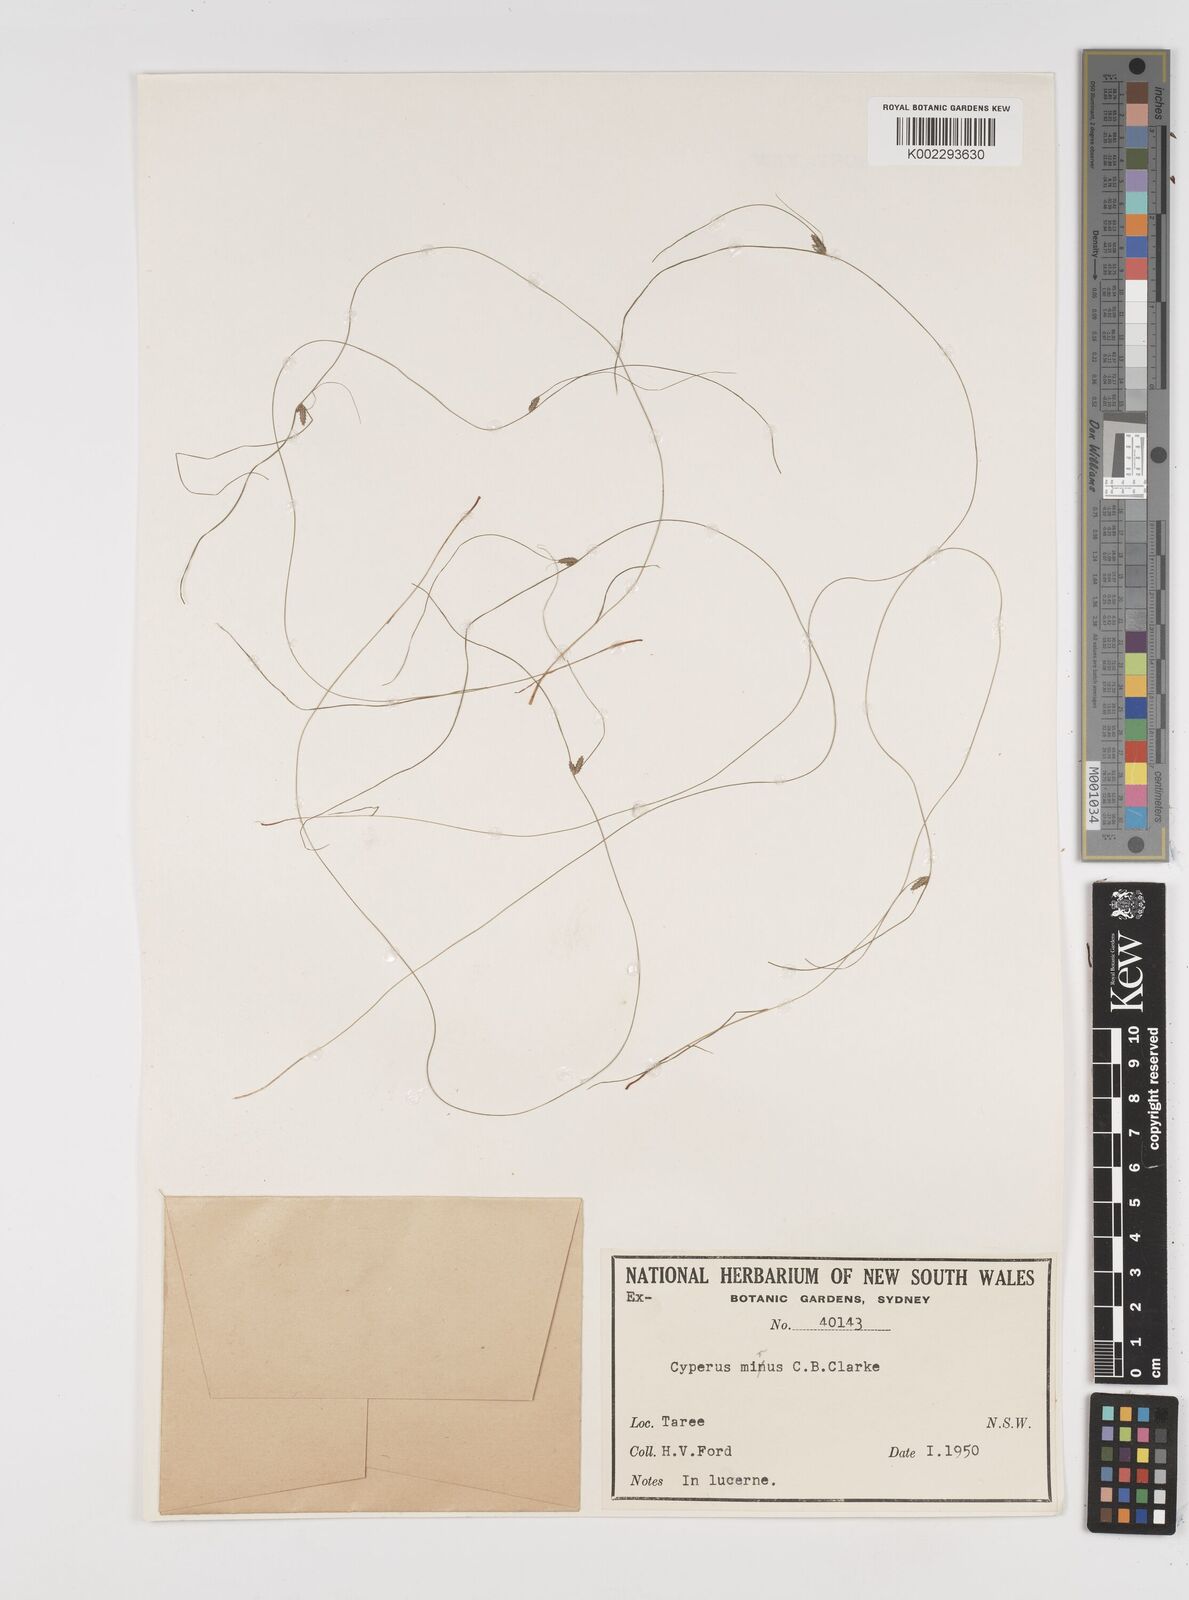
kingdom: Plantae
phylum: Tracheophyta
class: Liliopsida
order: Poales
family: Cyperaceae
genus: Cyperus
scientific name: Cyperus mirus
